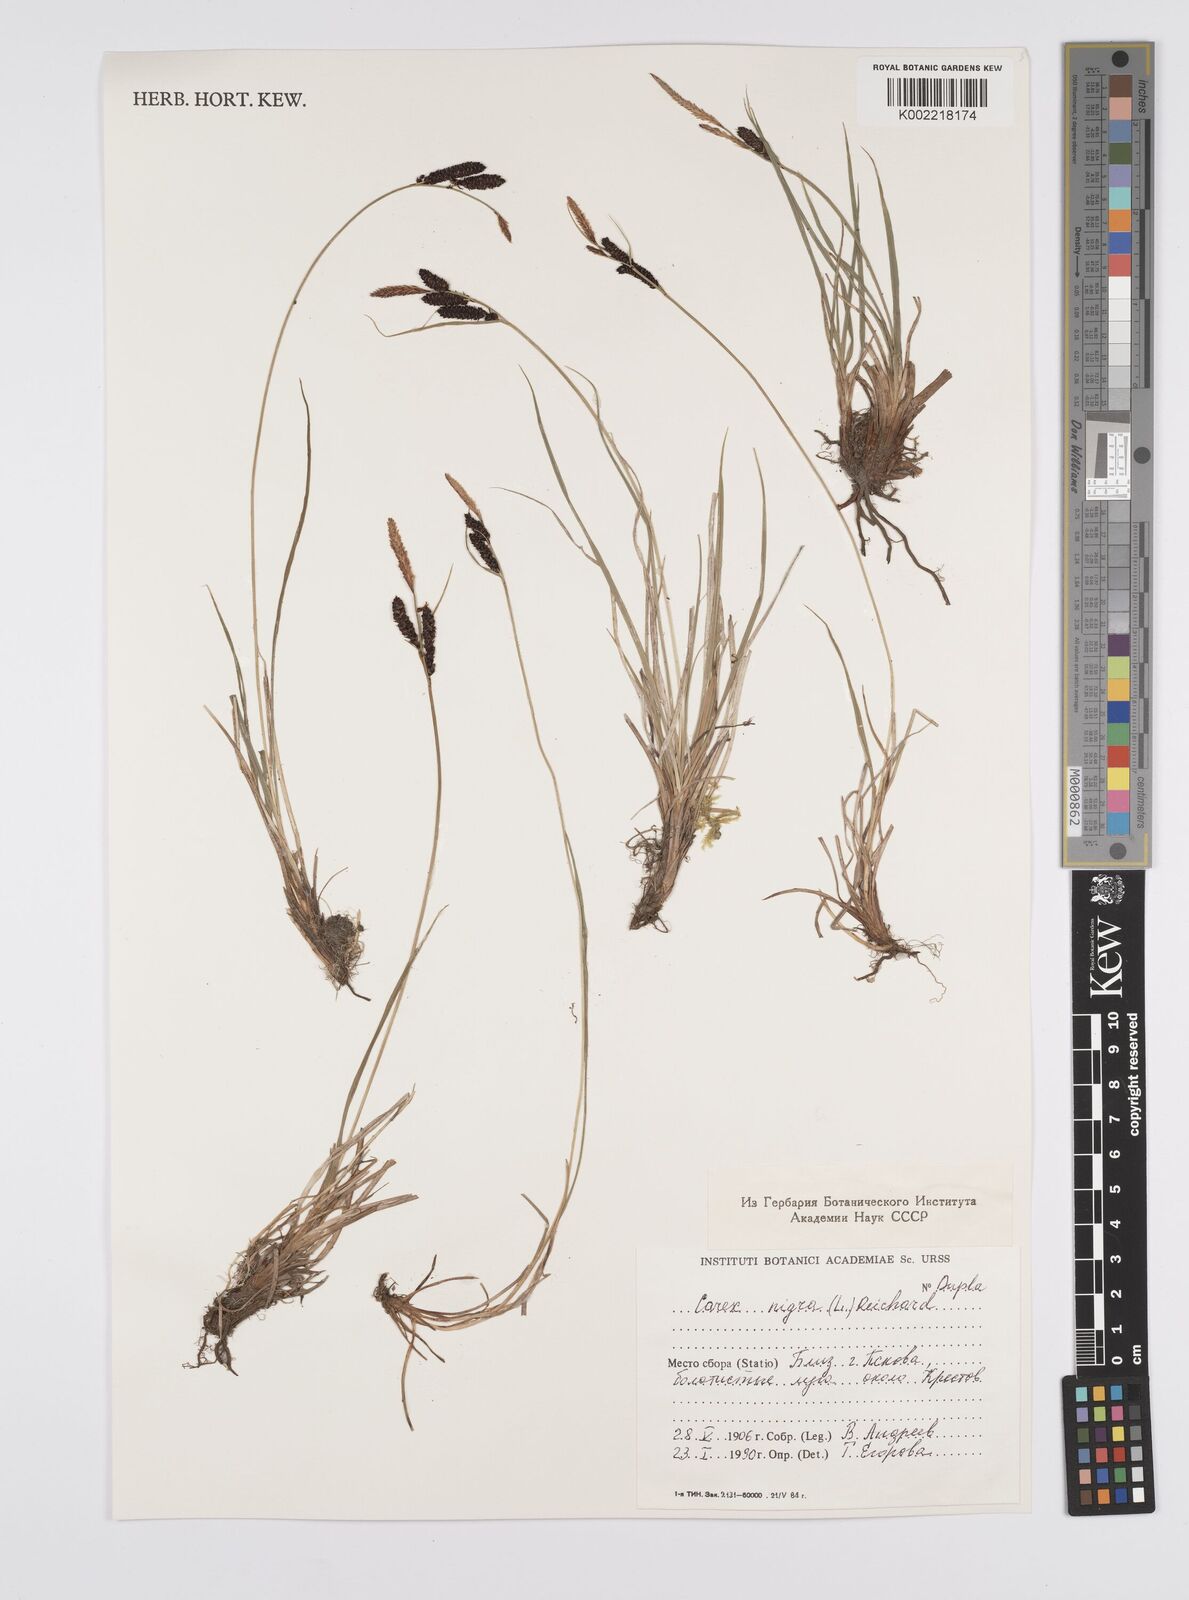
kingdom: Plantae
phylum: Tracheophyta
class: Liliopsida
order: Poales
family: Cyperaceae
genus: Carex
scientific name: Carex nigra
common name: Common sedge
